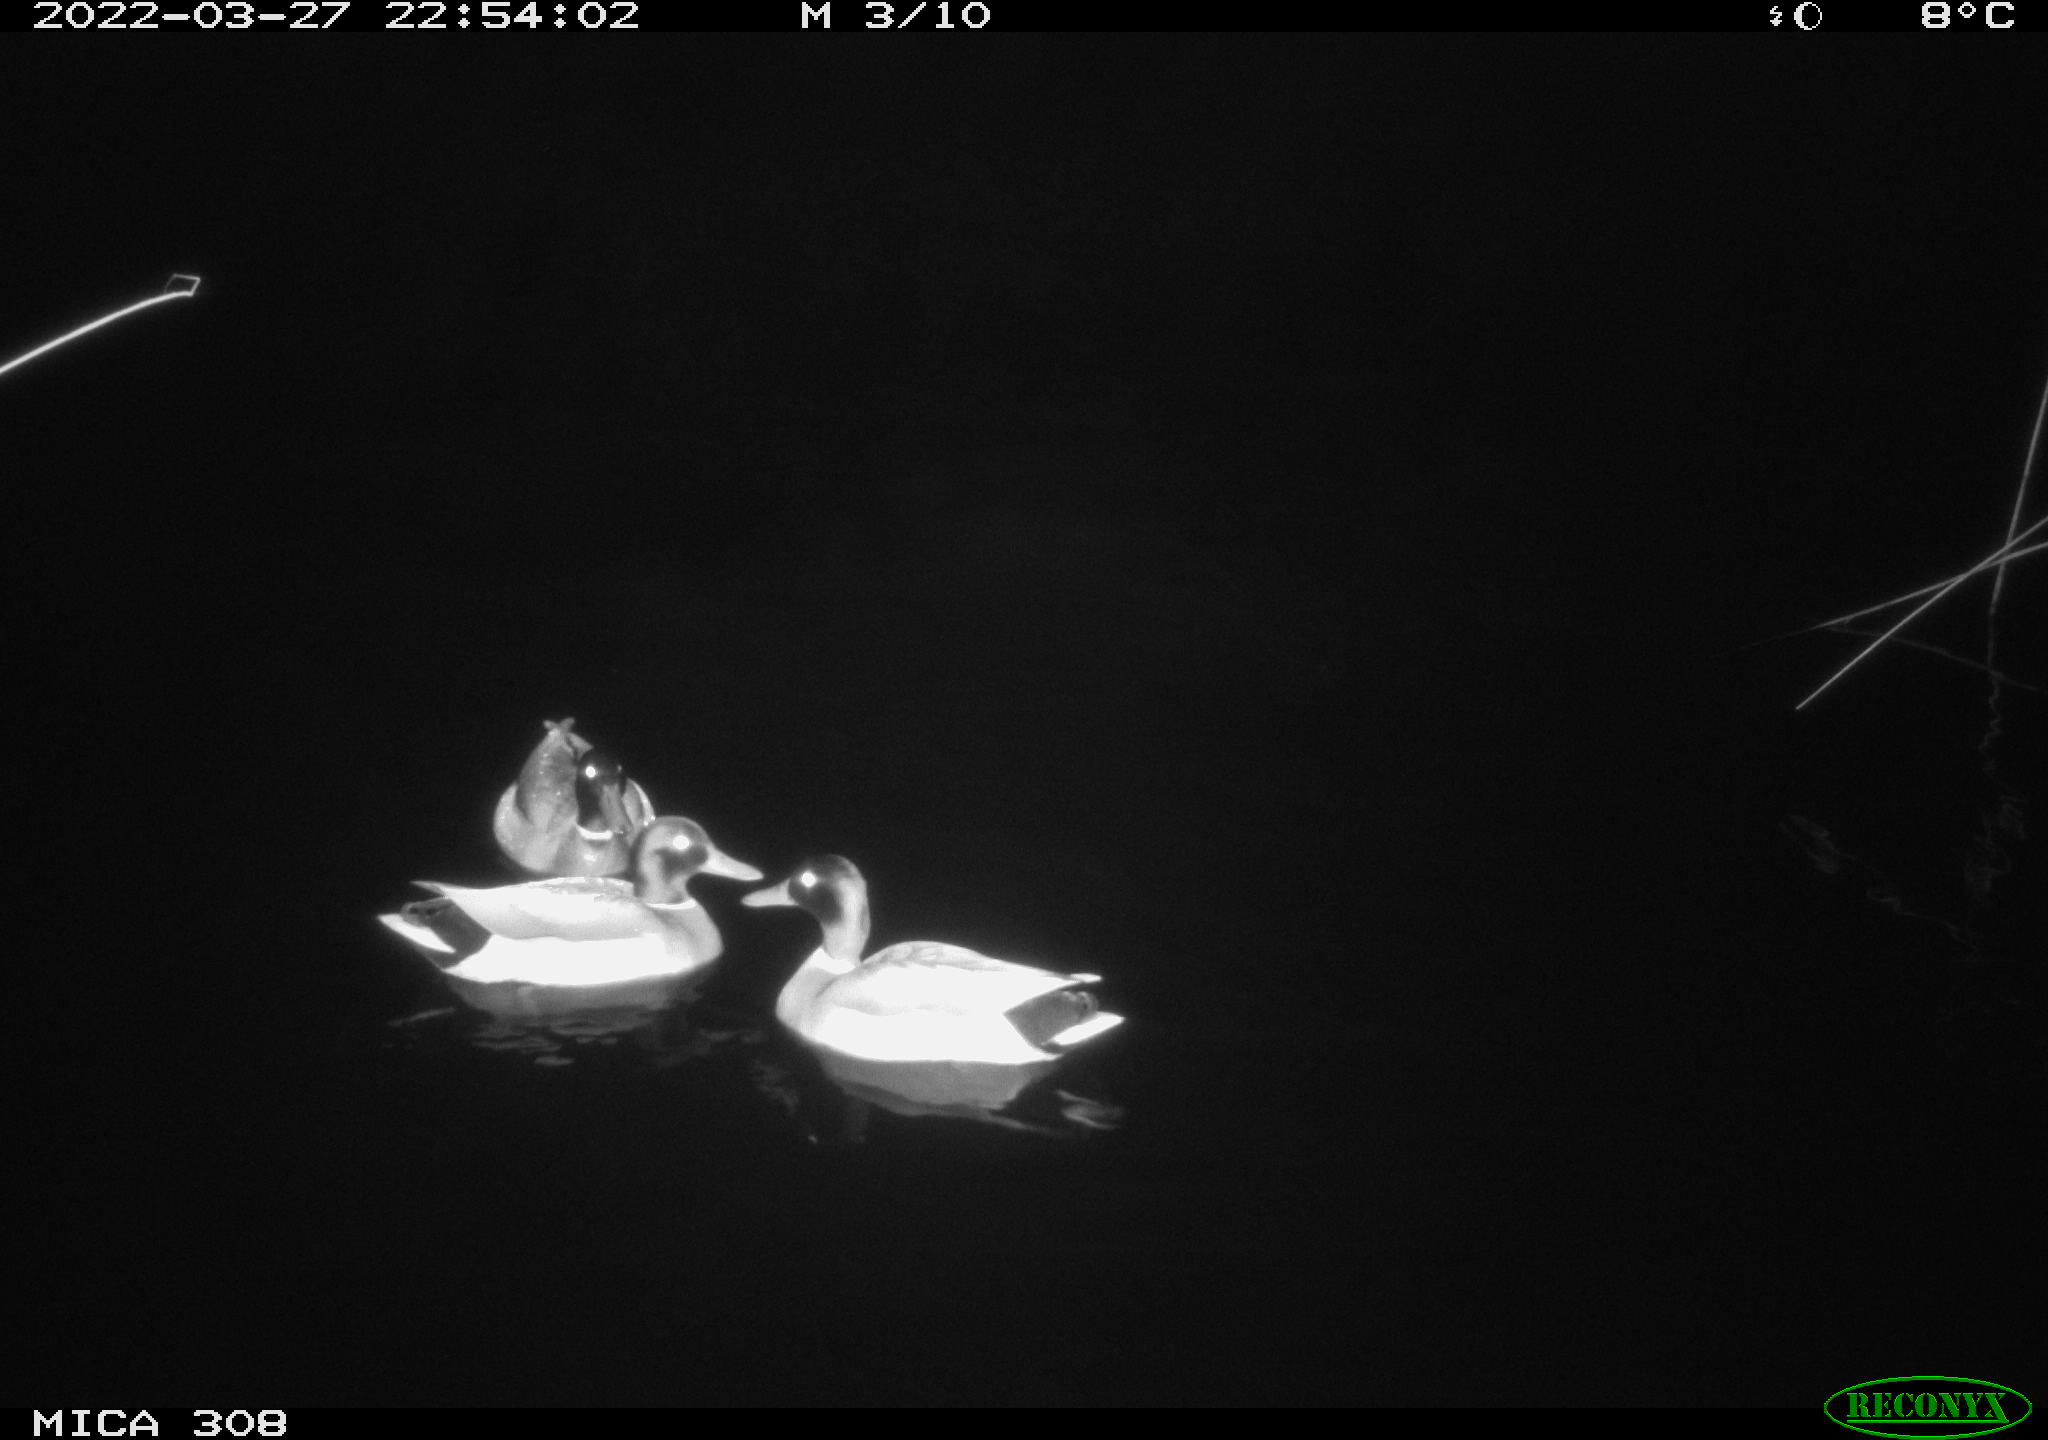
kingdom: Animalia
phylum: Chordata
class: Aves
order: Anseriformes
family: Anatidae
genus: Anas
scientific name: Anas platyrhynchos
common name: Mallard
